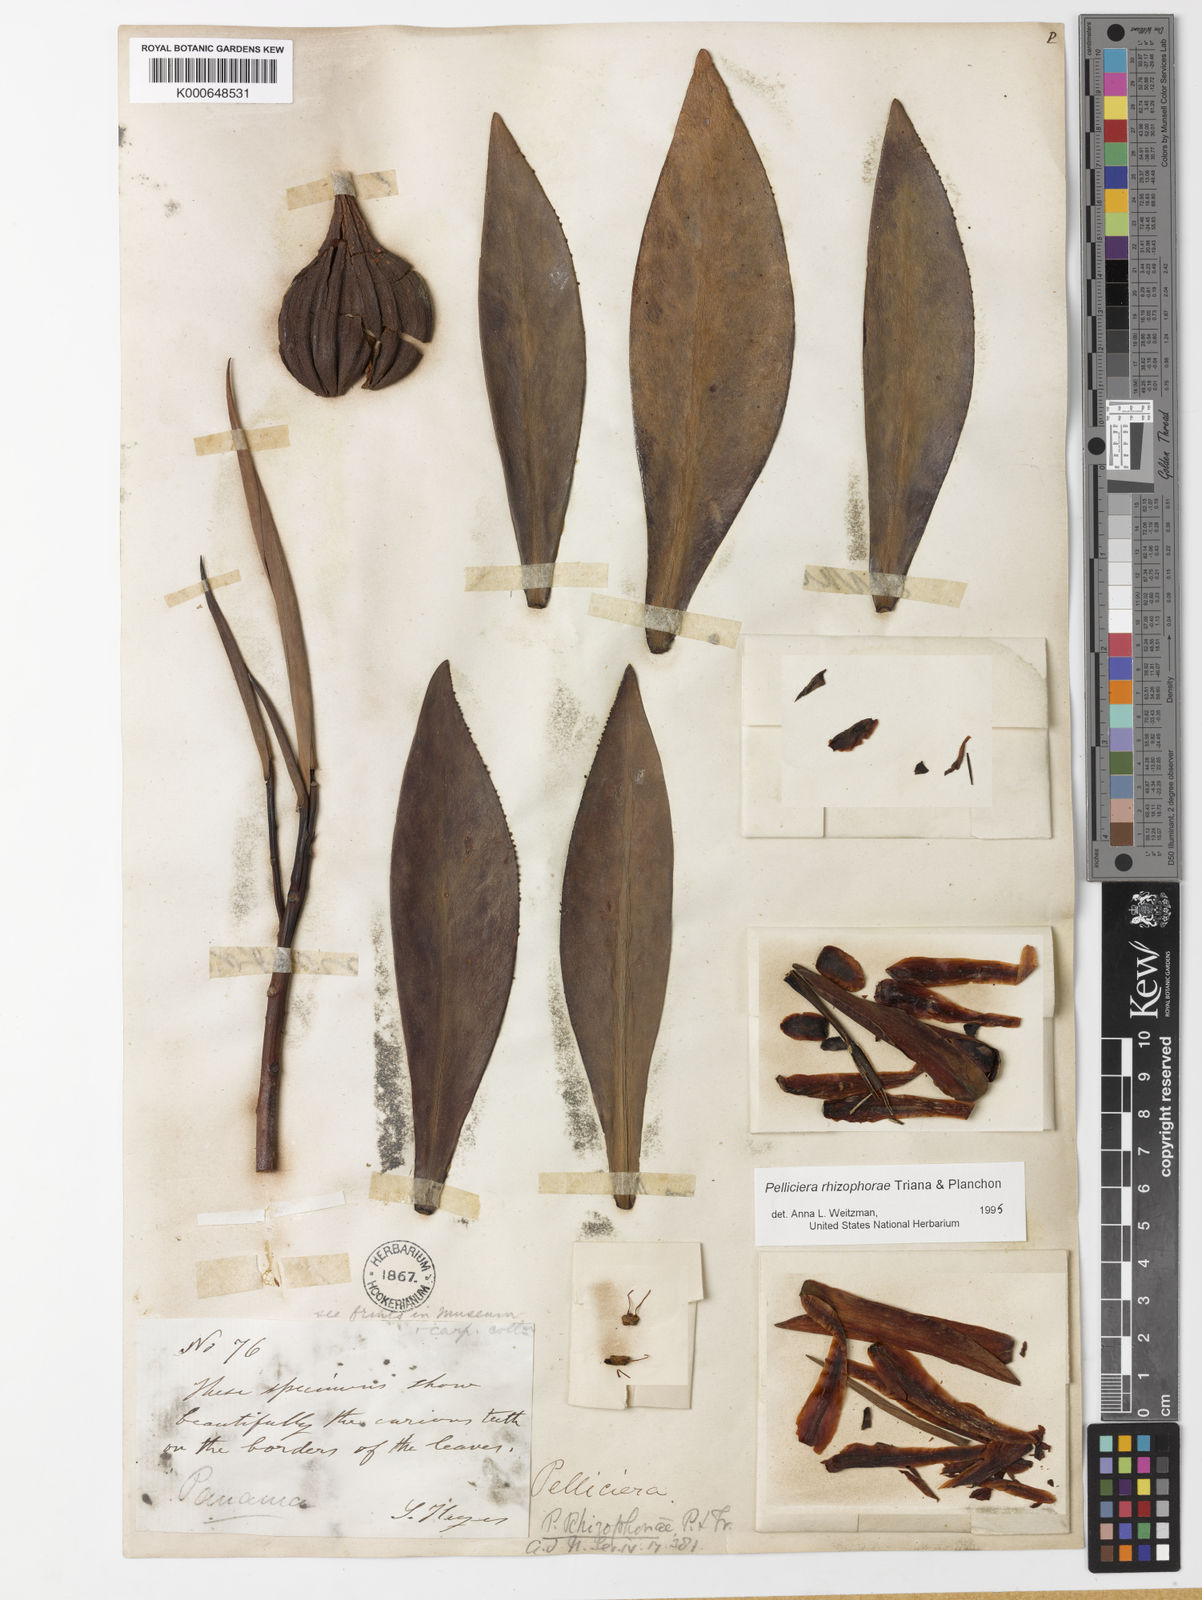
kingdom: Plantae
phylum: Tracheophyta
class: Magnoliopsida
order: Ericales
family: Tetrameristaceae
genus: Pelliciera
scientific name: Pelliciera rhizophorae
